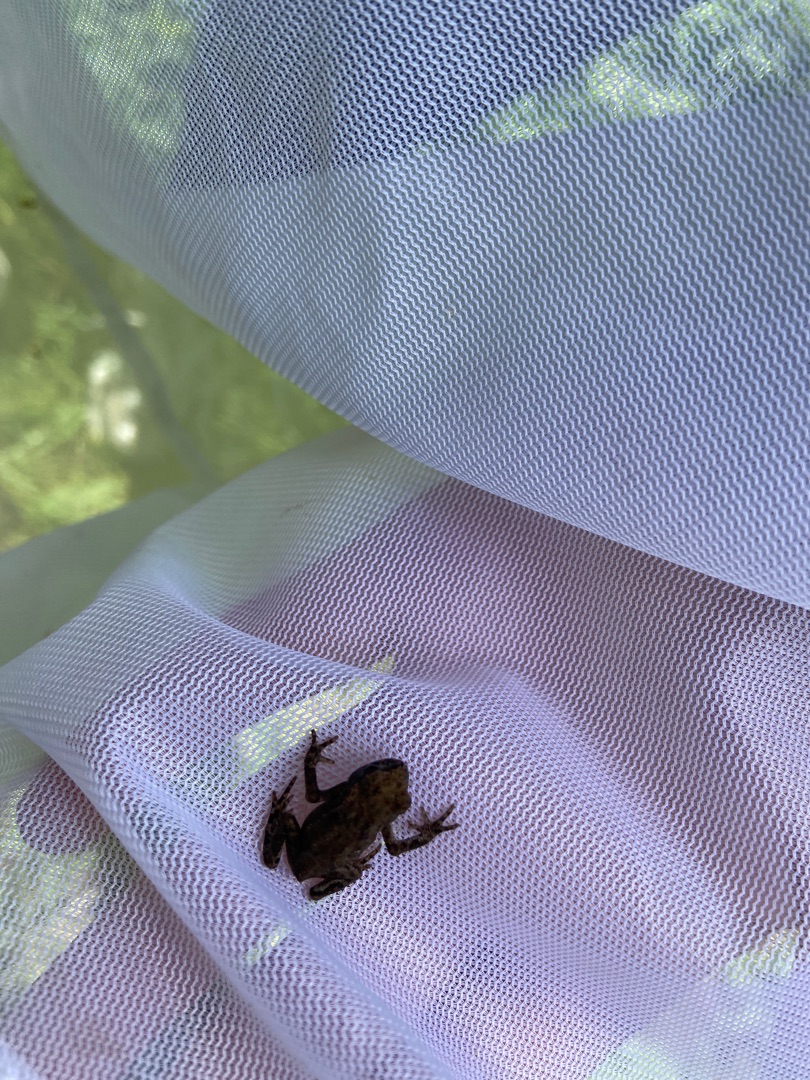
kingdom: Animalia
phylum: Chordata
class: Amphibia
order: Anura
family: Bufonidae
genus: Bufo
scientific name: Bufo bufo
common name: Skrubtudse
